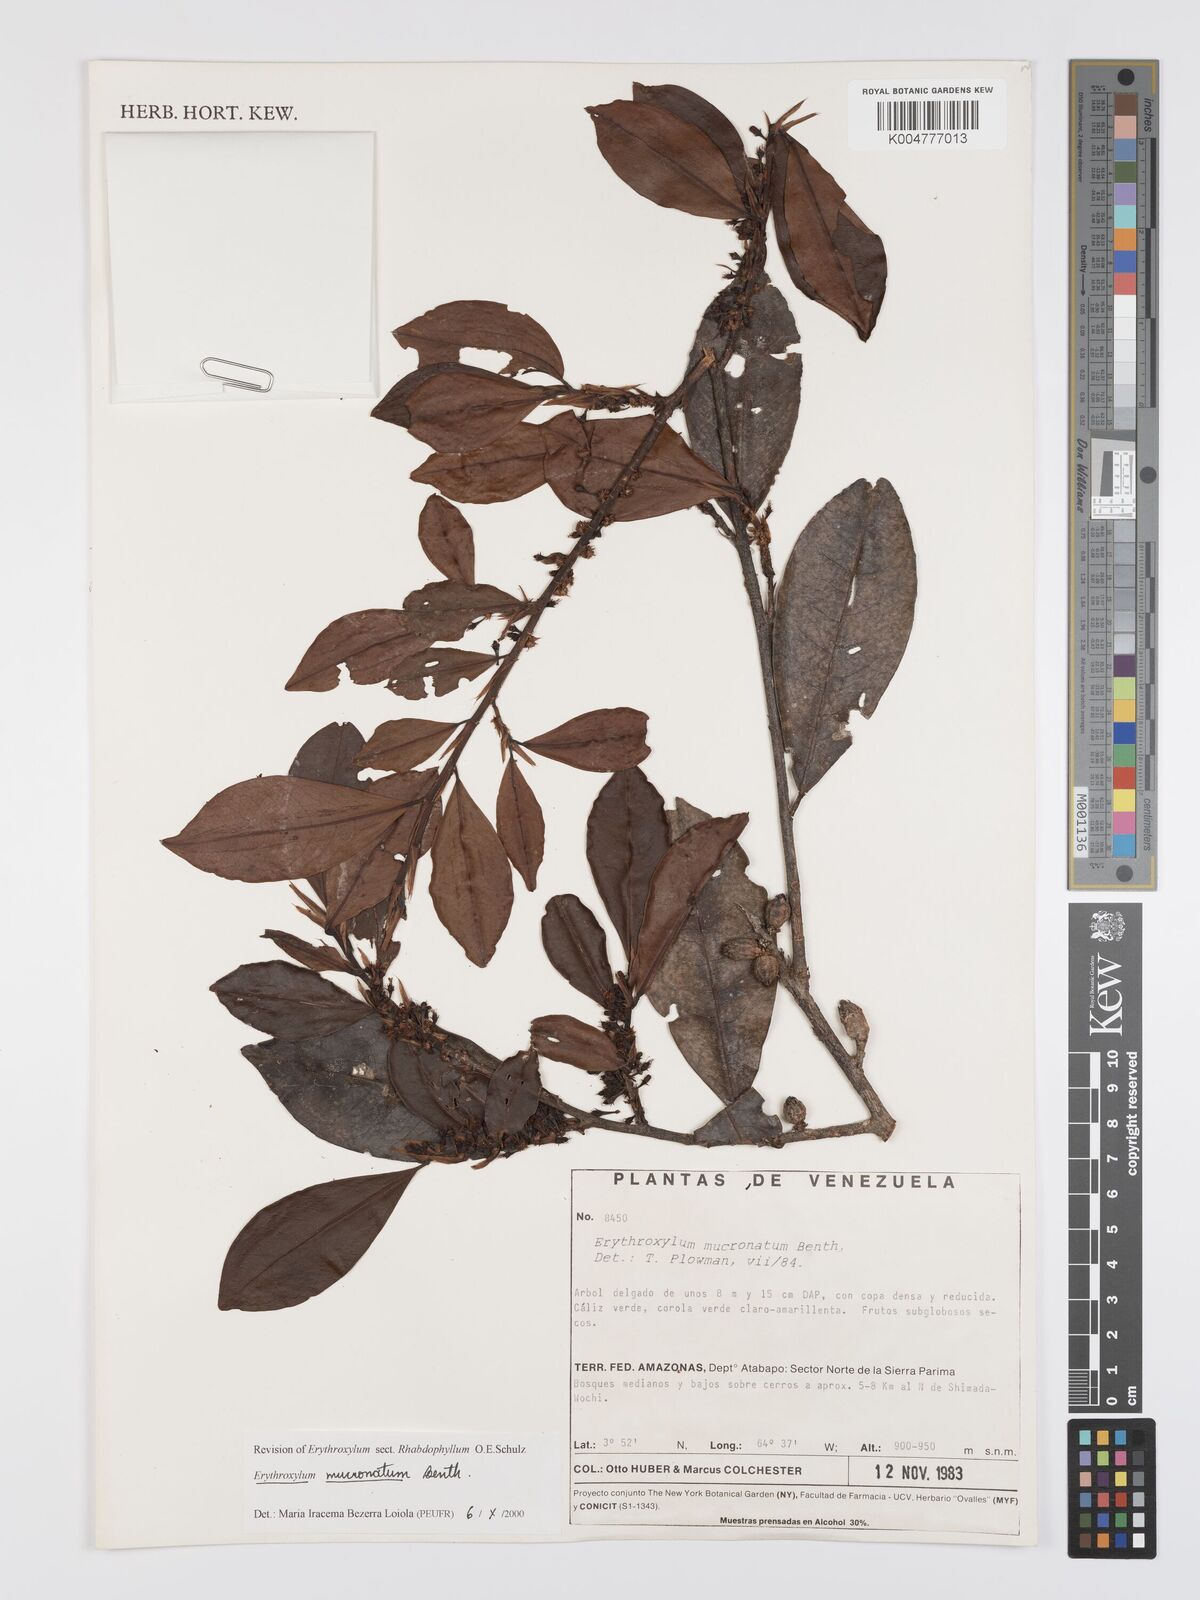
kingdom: Plantae
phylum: Tracheophyta
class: Magnoliopsida
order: Malpighiales
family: Erythroxylaceae
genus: Erythroxylum
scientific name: Erythroxylum mucronatum
